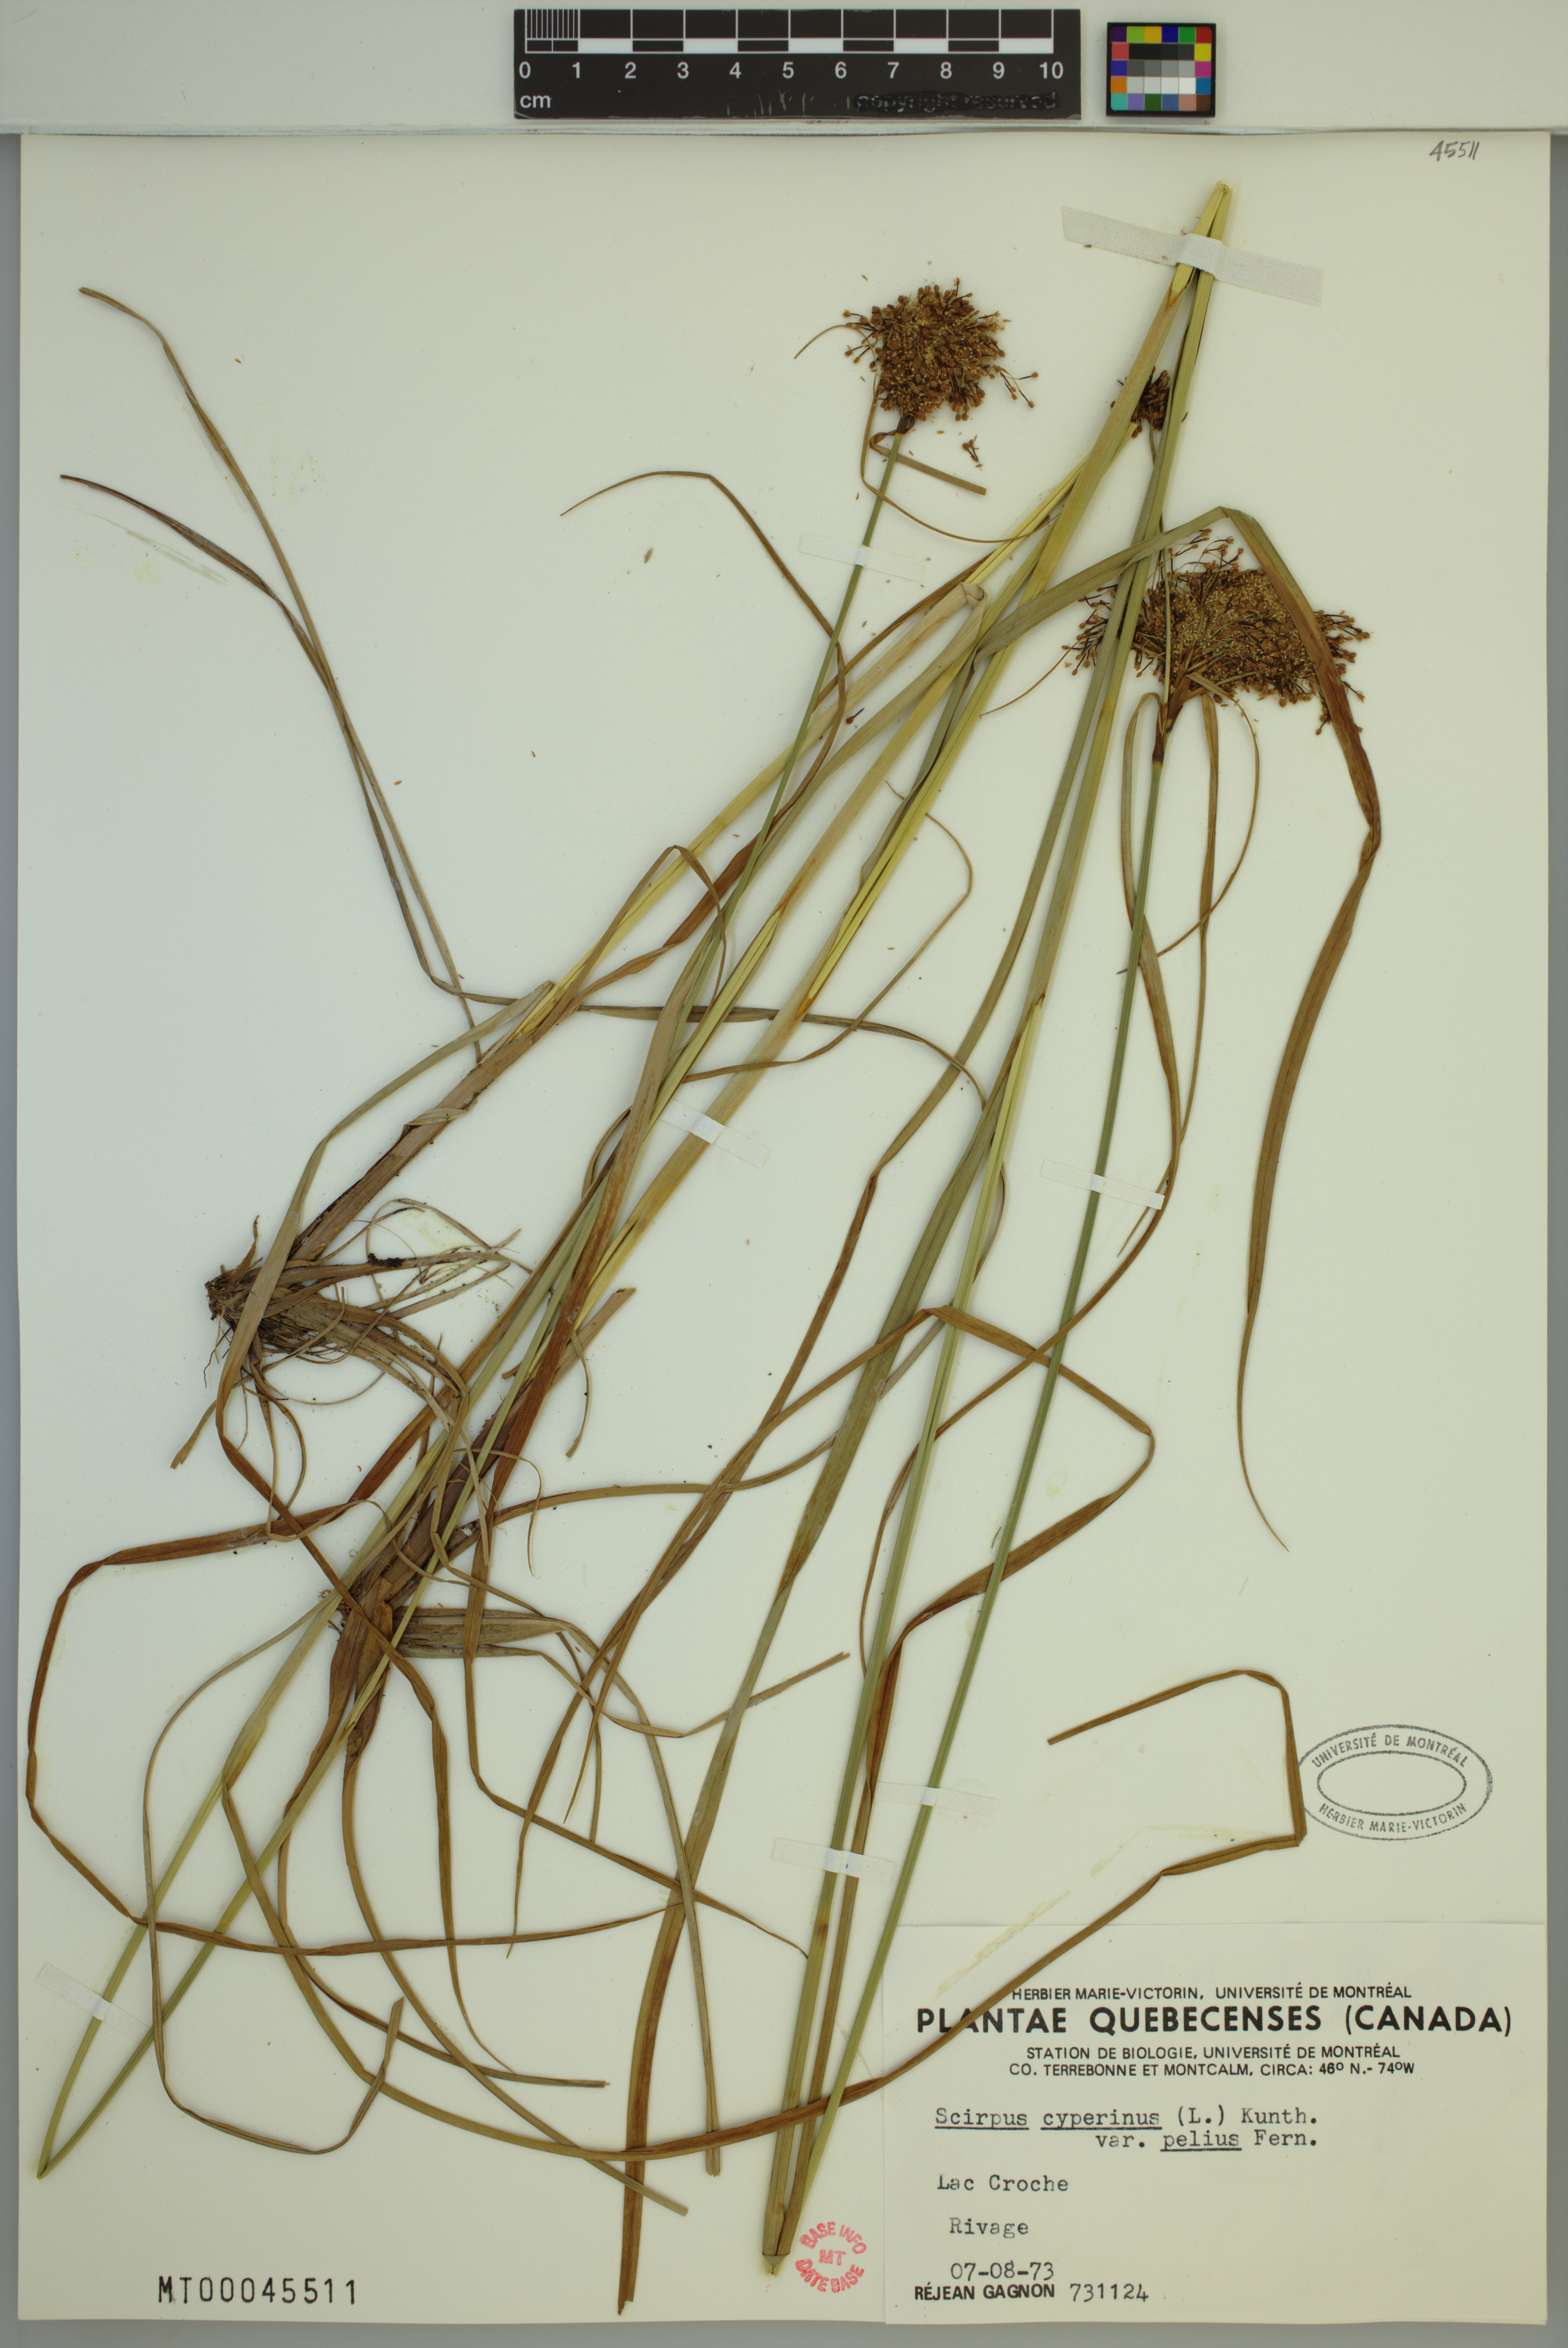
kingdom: Plantae
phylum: Tracheophyta
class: Liliopsida
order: Poales
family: Cyperaceae
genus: Scirpus
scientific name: Scirpus cyperinus
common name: Black-sheathed bulrush
